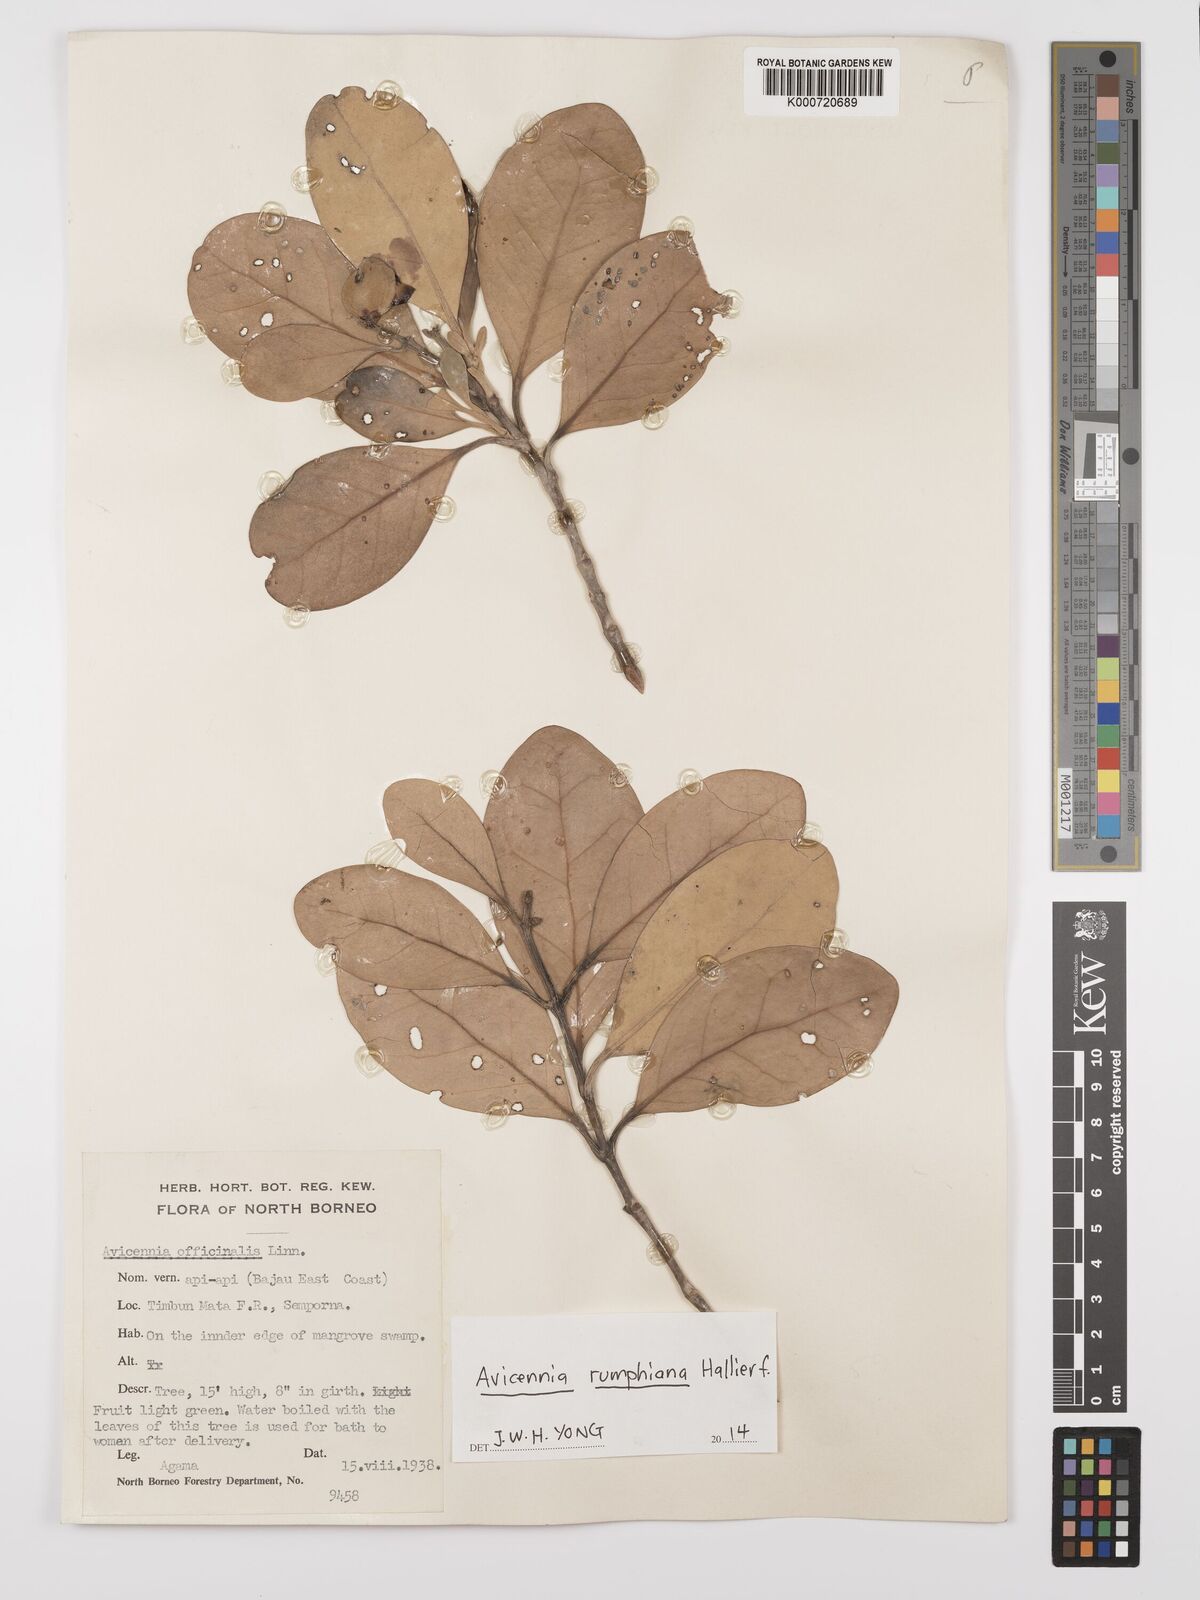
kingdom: Plantae
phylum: Tracheophyta
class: Magnoliopsida
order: Lamiales
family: Acanthaceae
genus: Avicennia
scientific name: Avicennia marina
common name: Gray mangrove
